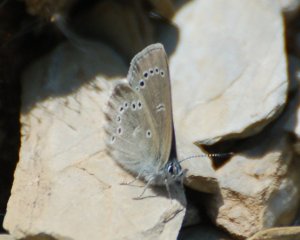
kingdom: Animalia
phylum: Arthropoda
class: Insecta
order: Lepidoptera
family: Lycaenidae
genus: Glaucopsyche
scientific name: Glaucopsyche lygdamus
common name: Silvery Blue
